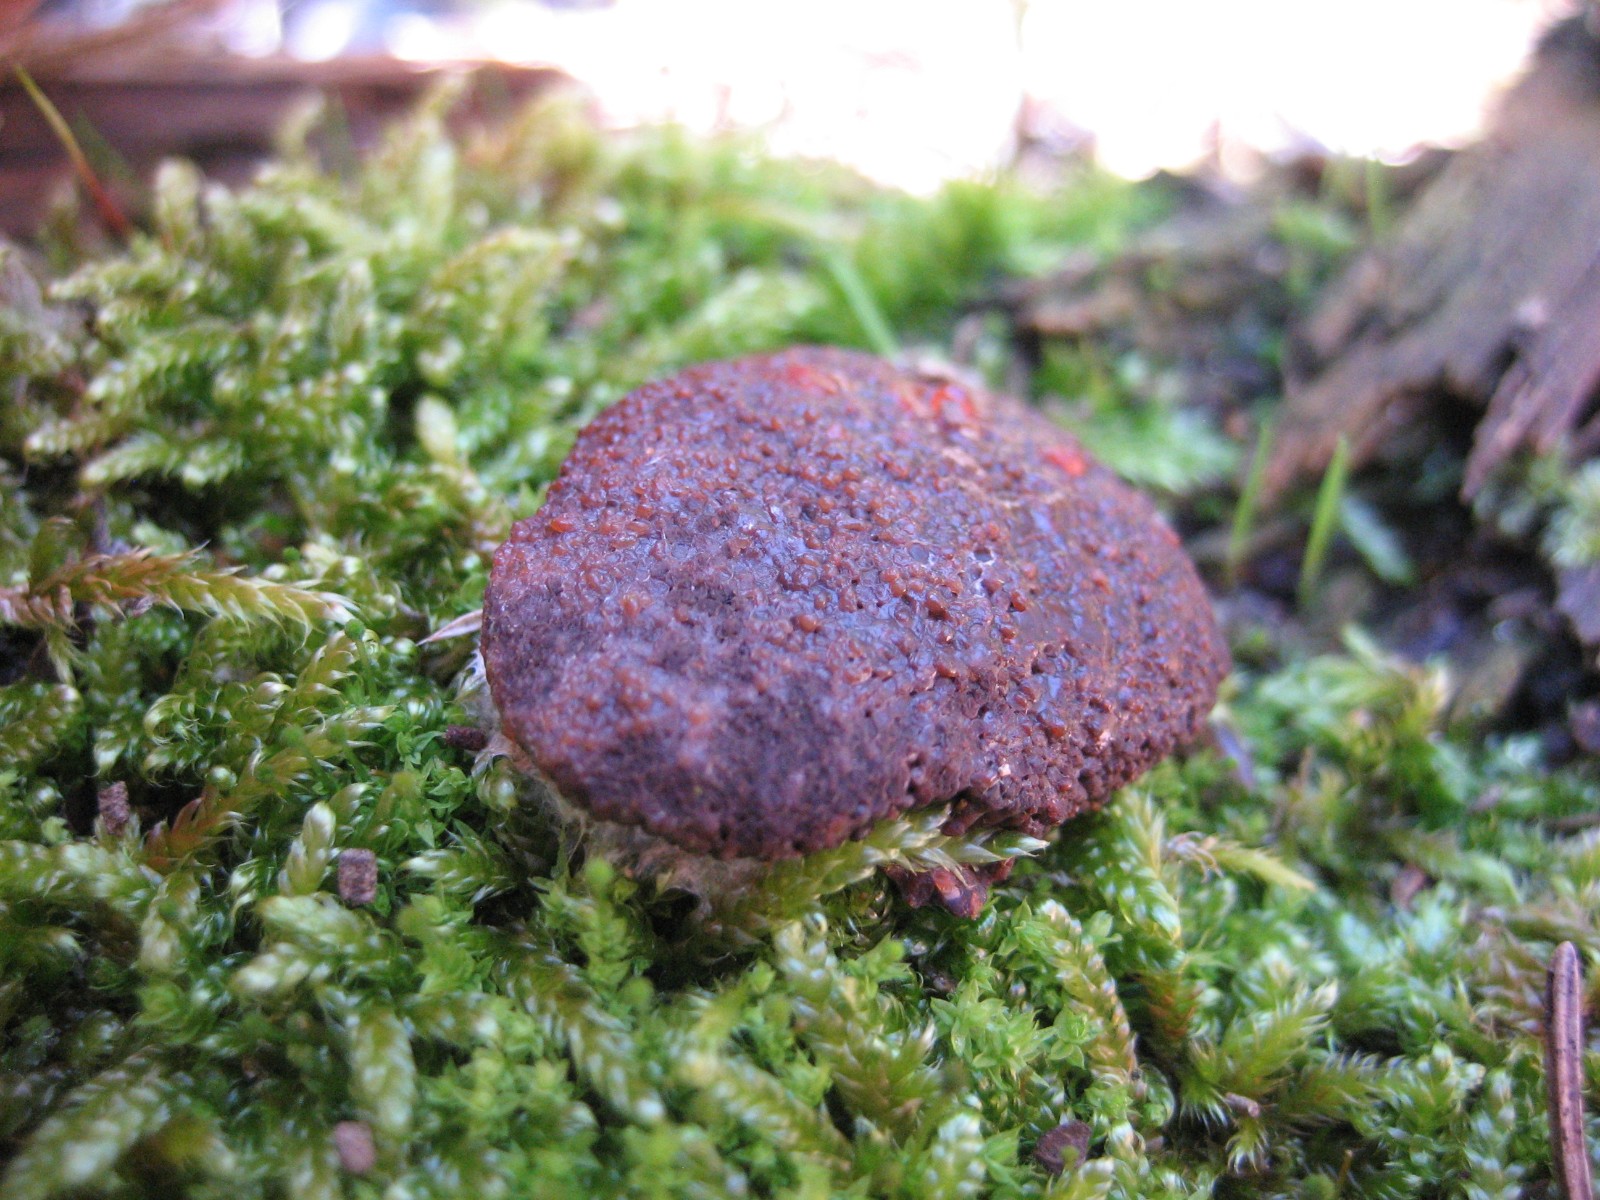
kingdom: Protozoa
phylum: Mycetozoa
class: Myxomycetes
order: Cribrariales
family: Tubiferaceae
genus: Tubifera
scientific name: Tubifera ferruginosa
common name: kanel-støvrør
